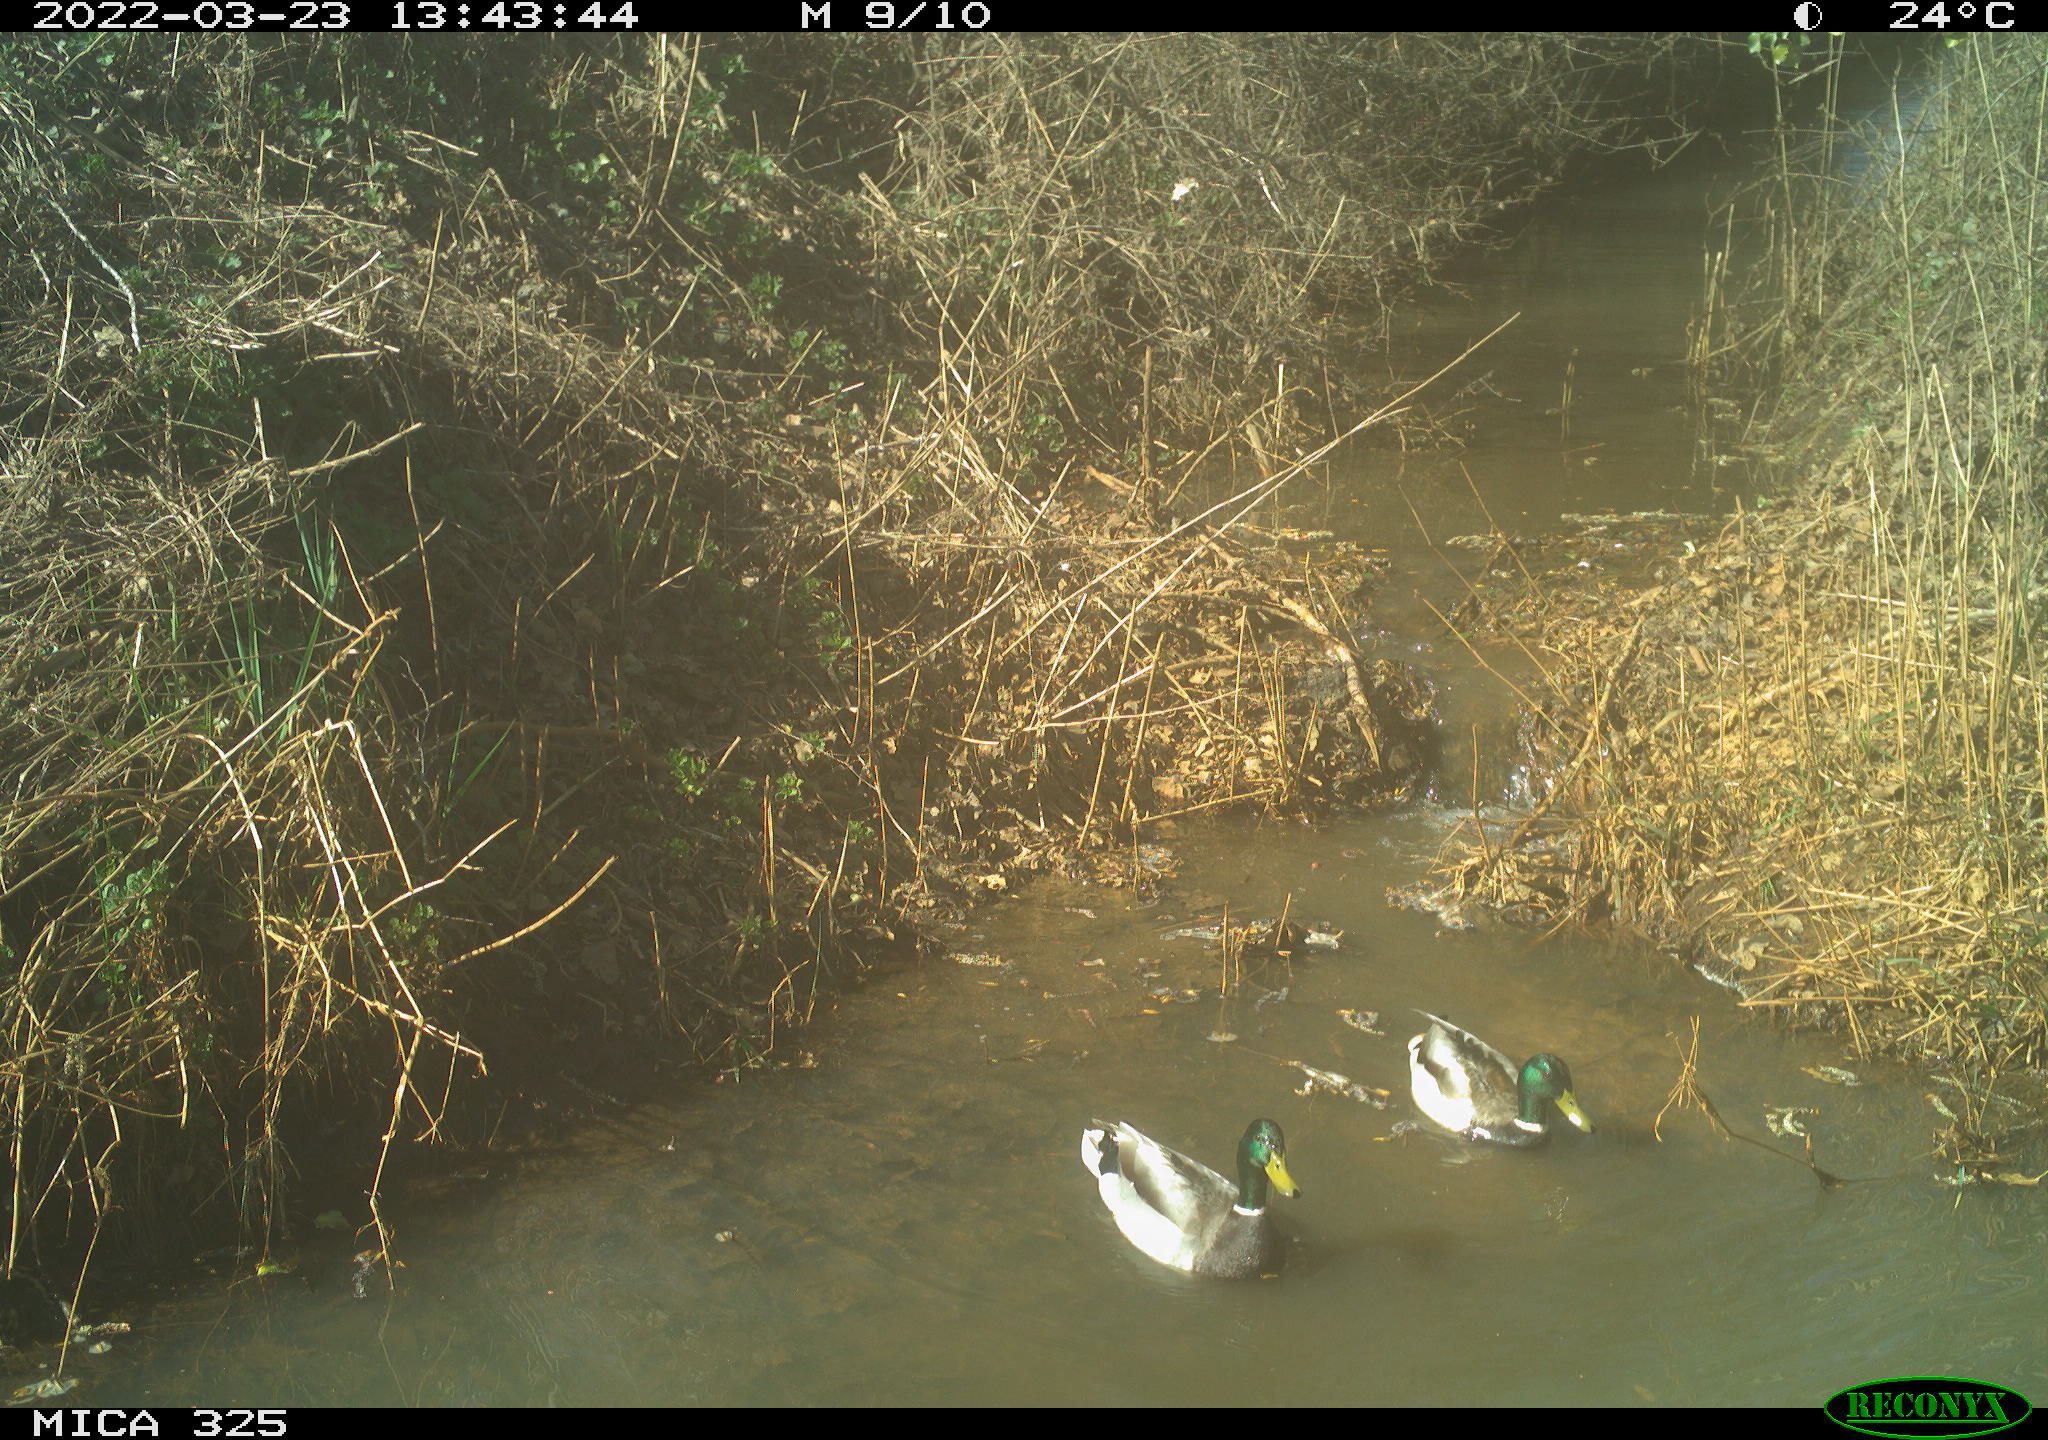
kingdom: Animalia
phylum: Chordata
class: Aves
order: Anseriformes
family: Anatidae
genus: Anas
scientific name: Anas platyrhynchos
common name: Mallard
